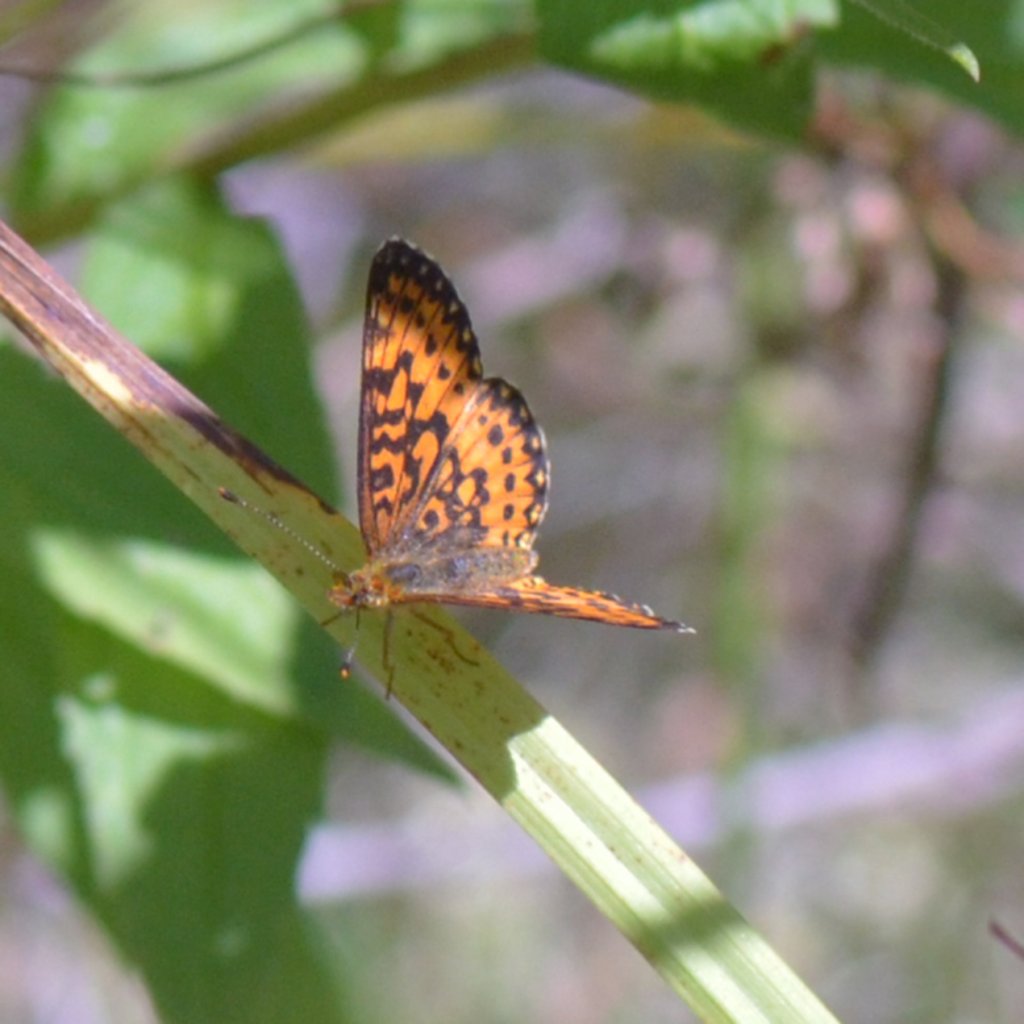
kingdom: Animalia
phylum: Arthropoda
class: Insecta
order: Lepidoptera
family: Nymphalidae
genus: Boloria
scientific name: Boloria selene
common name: Silver-bordered Fritillary
